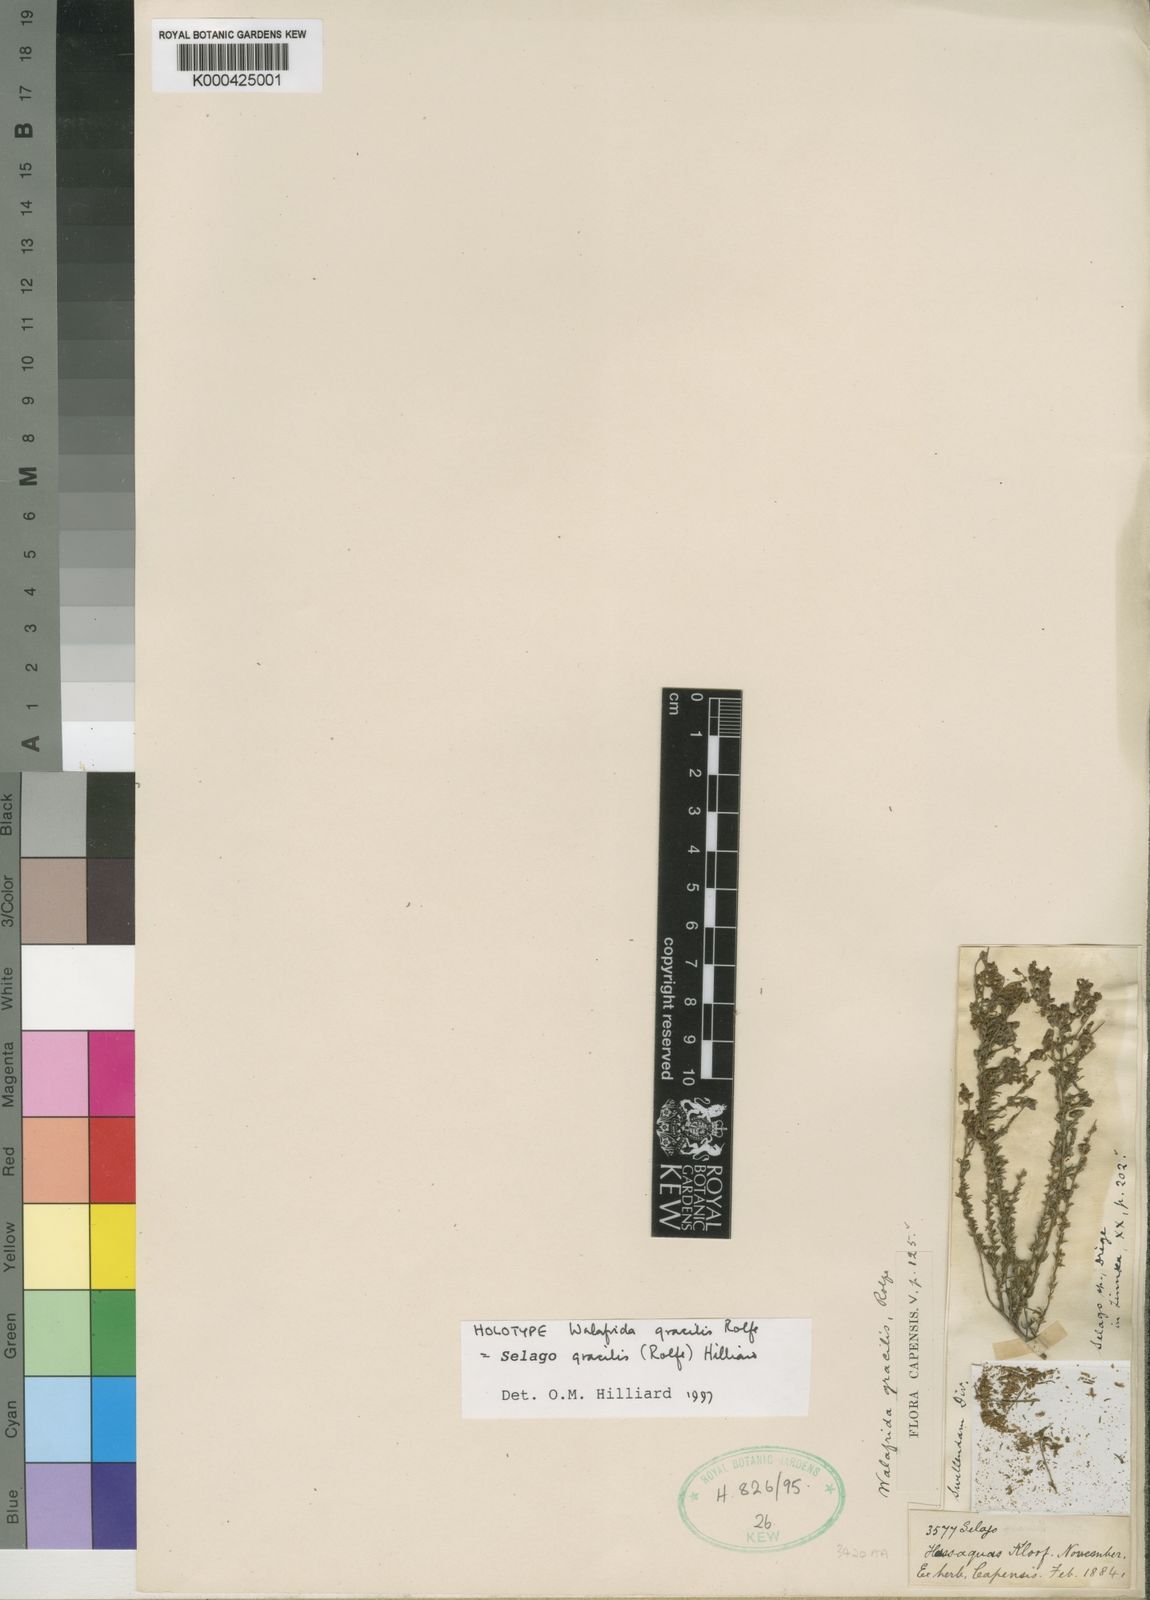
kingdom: Plantae
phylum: Tracheophyta
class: Magnoliopsida
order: Lamiales
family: Scrophulariaceae
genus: Selago
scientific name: Selago gracilis
